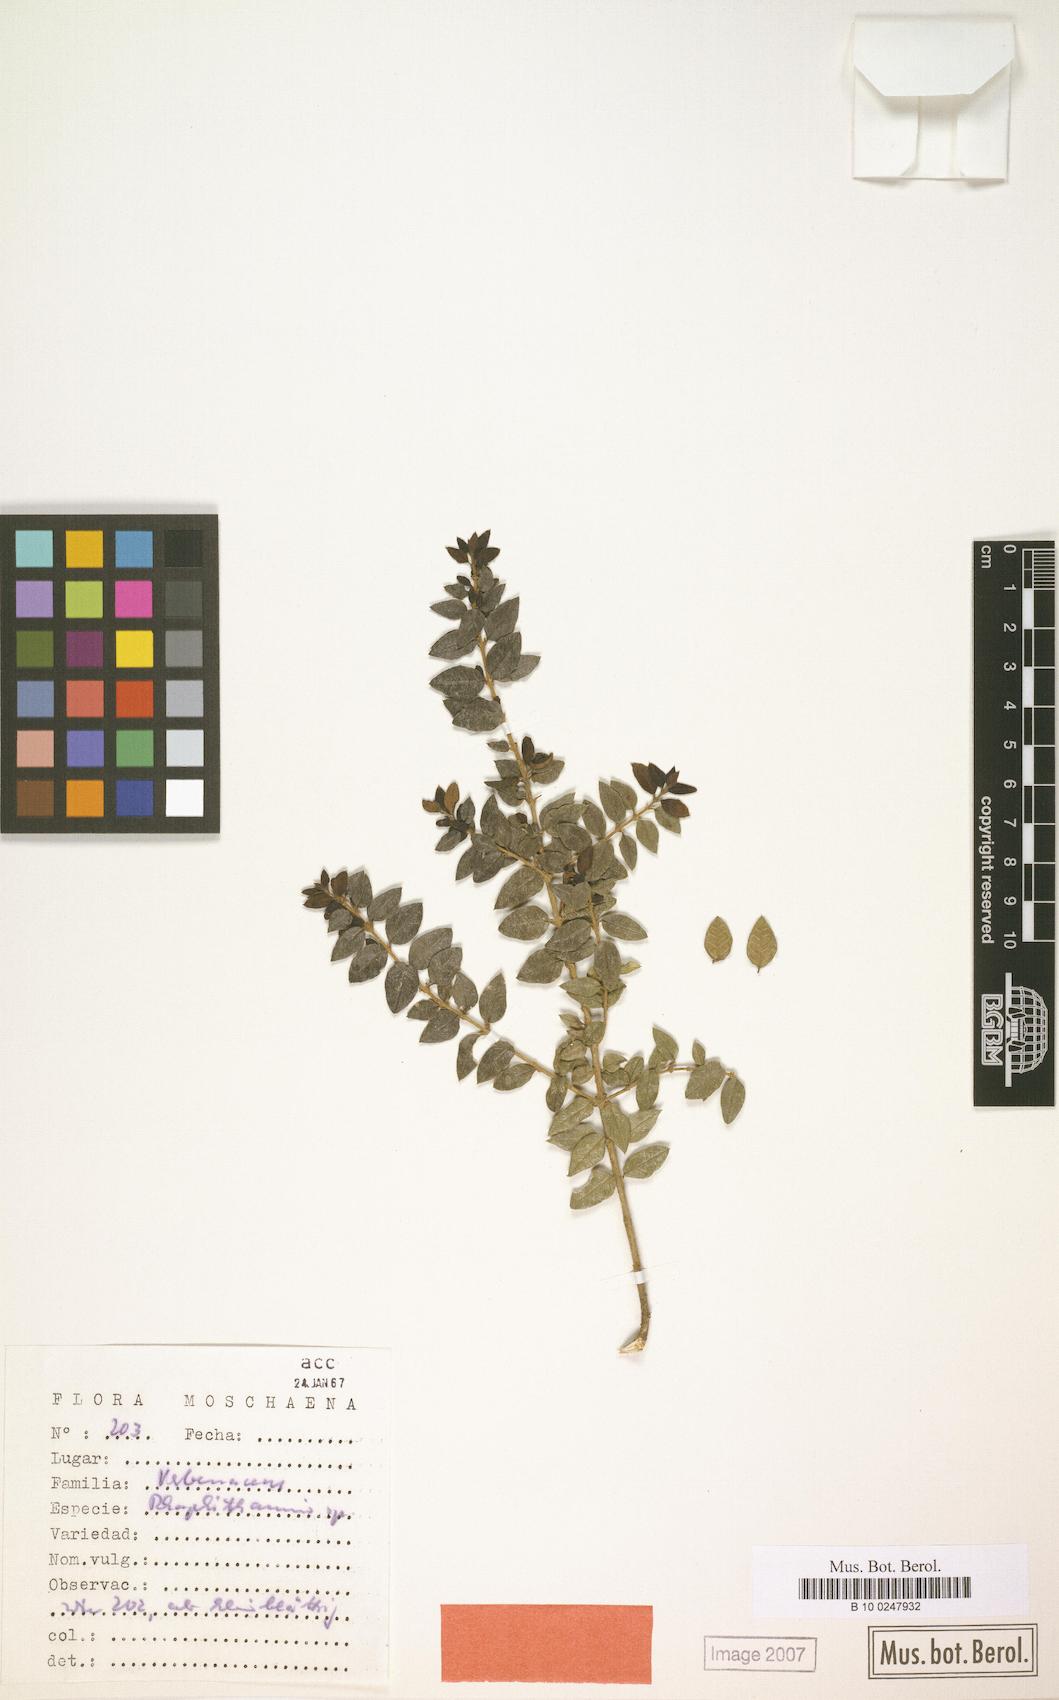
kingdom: Plantae
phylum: Tracheophyta
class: Magnoliopsida
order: Lamiales
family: Verbenaceae
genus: Rhaphithamnus
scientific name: Rhaphithamnus
